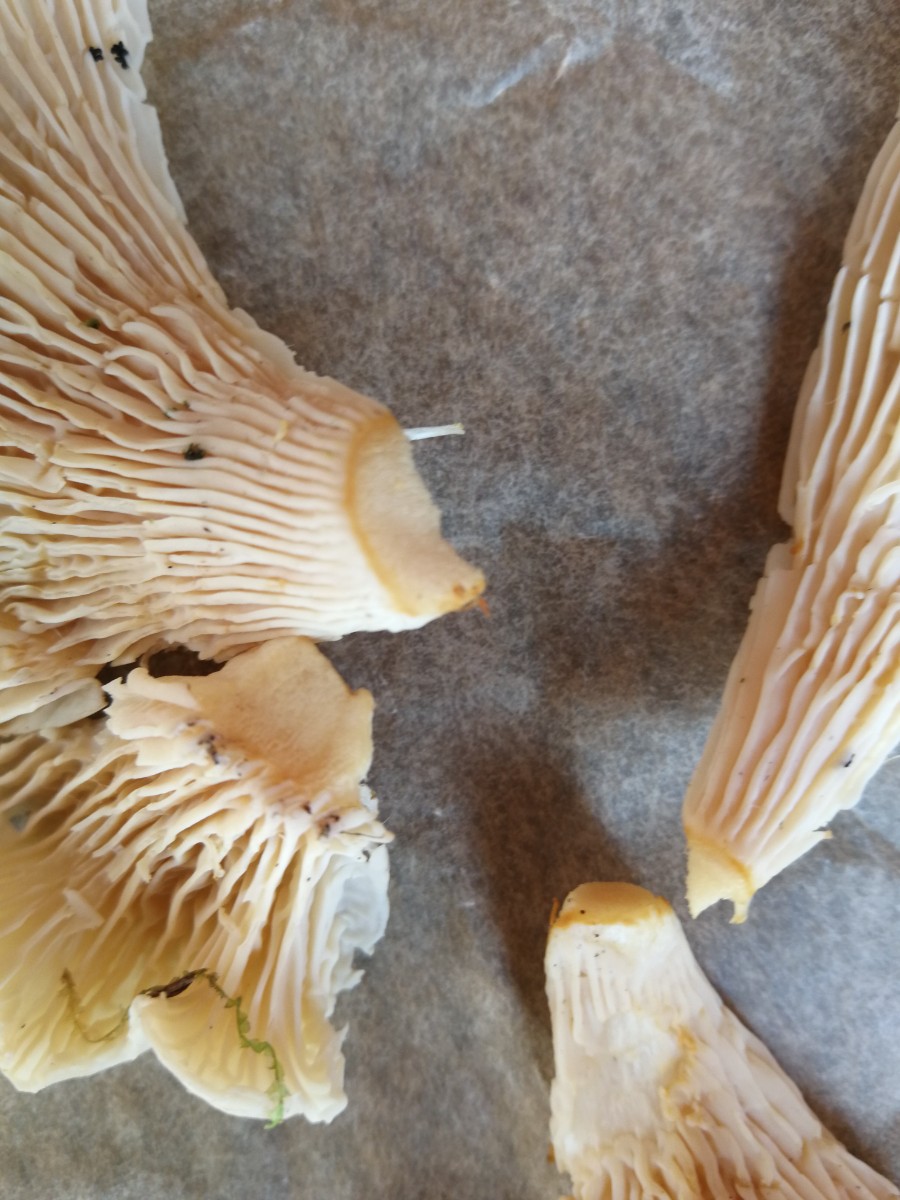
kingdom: Fungi
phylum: Basidiomycota
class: Agaricomycetes
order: Cantharellales
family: Hydnaceae
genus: Cantharellus
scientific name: Cantharellus
